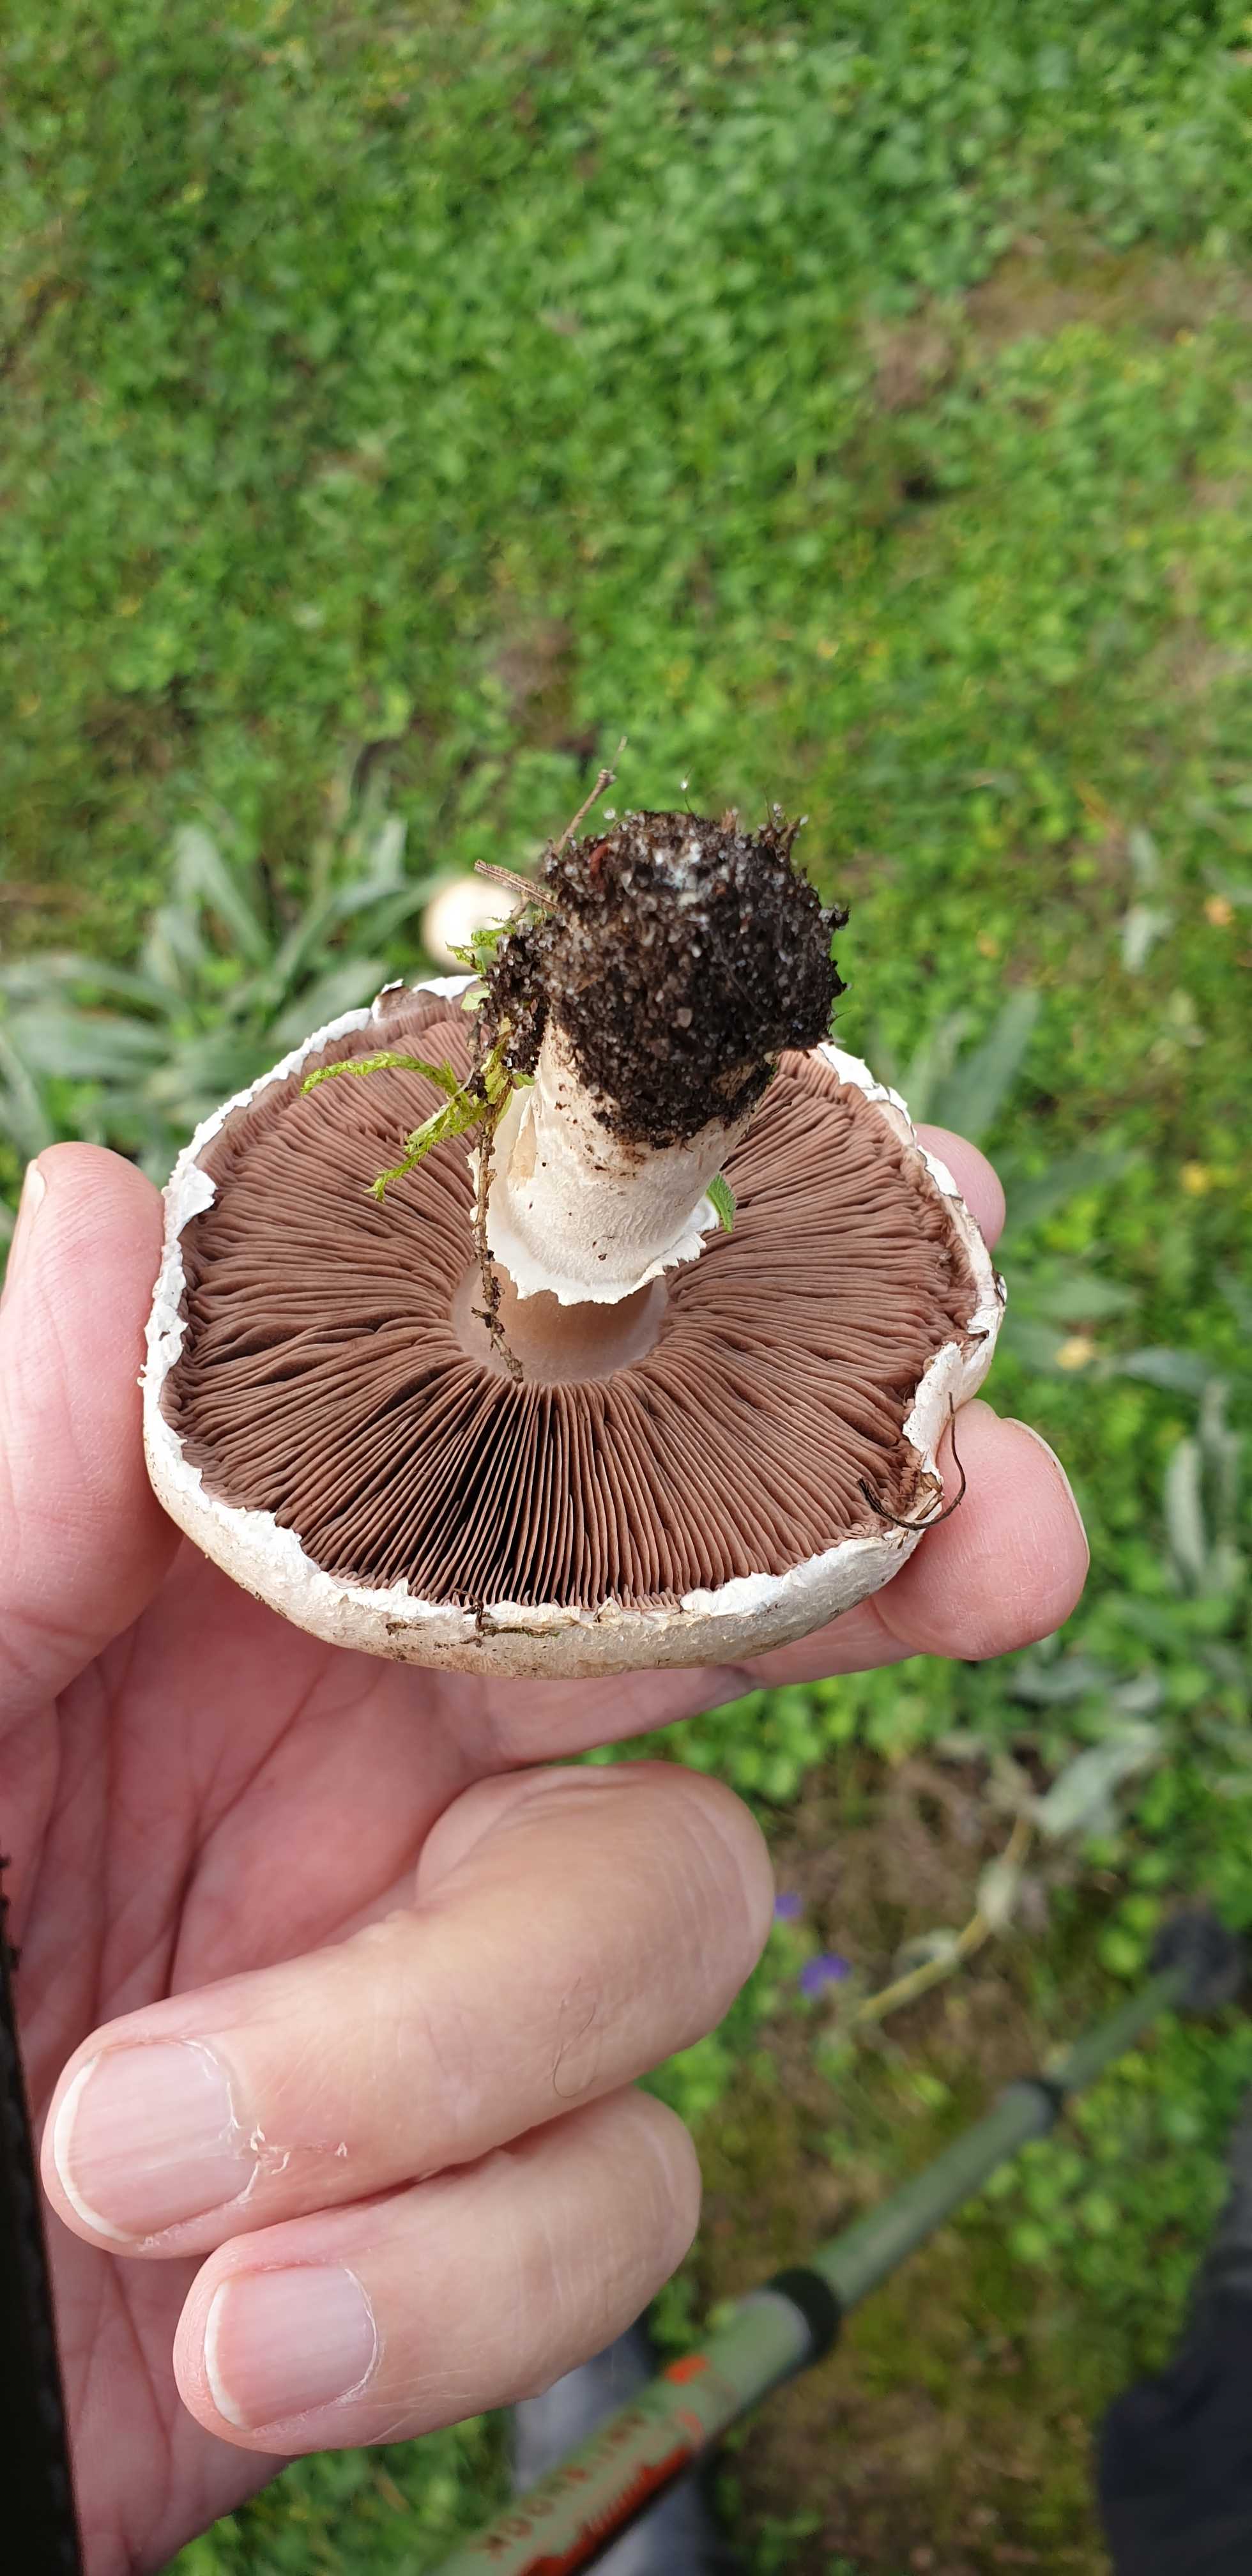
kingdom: Fungi
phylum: Basidiomycota
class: Agaricomycetes
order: Agaricales
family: Agaricaceae
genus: Agaricus
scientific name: Agaricus campestris
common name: mark-champignon
